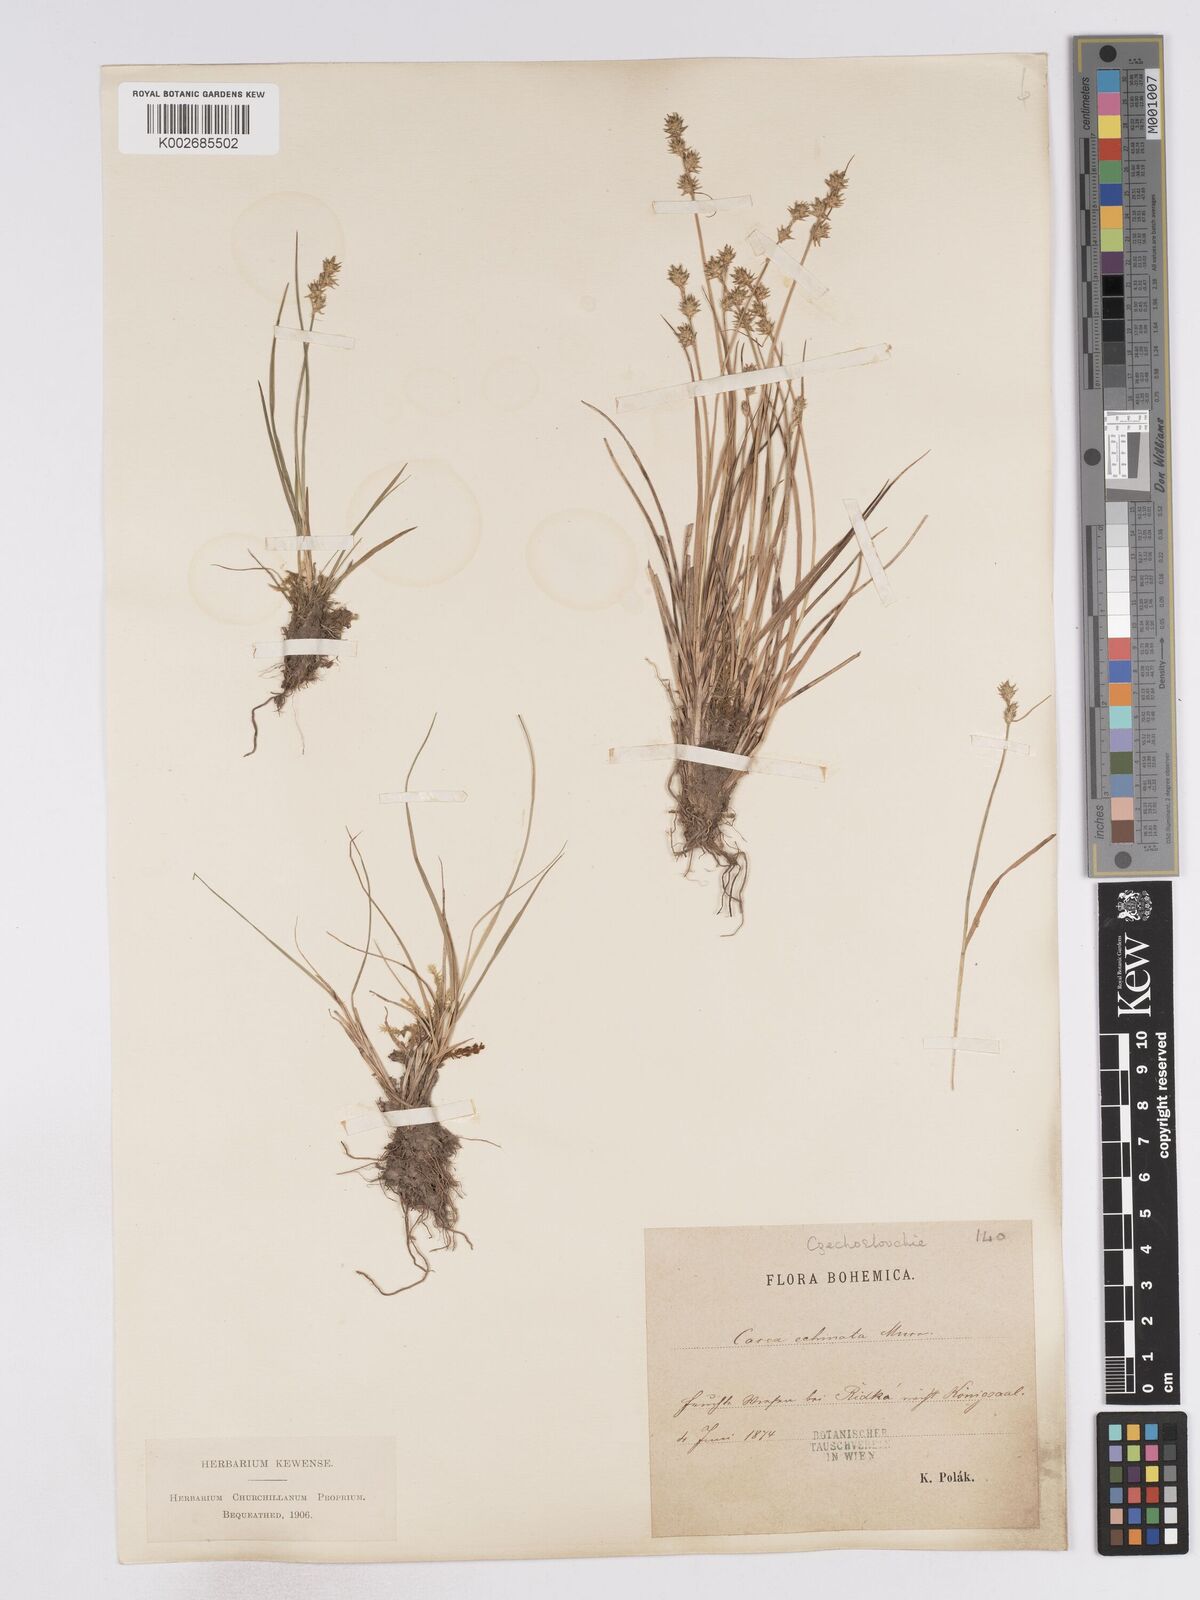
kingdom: Plantae
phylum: Tracheophyta
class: Liliopsida
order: Poales
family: Cyperaceae
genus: Carex
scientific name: Carex echinata
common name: Star sedge
